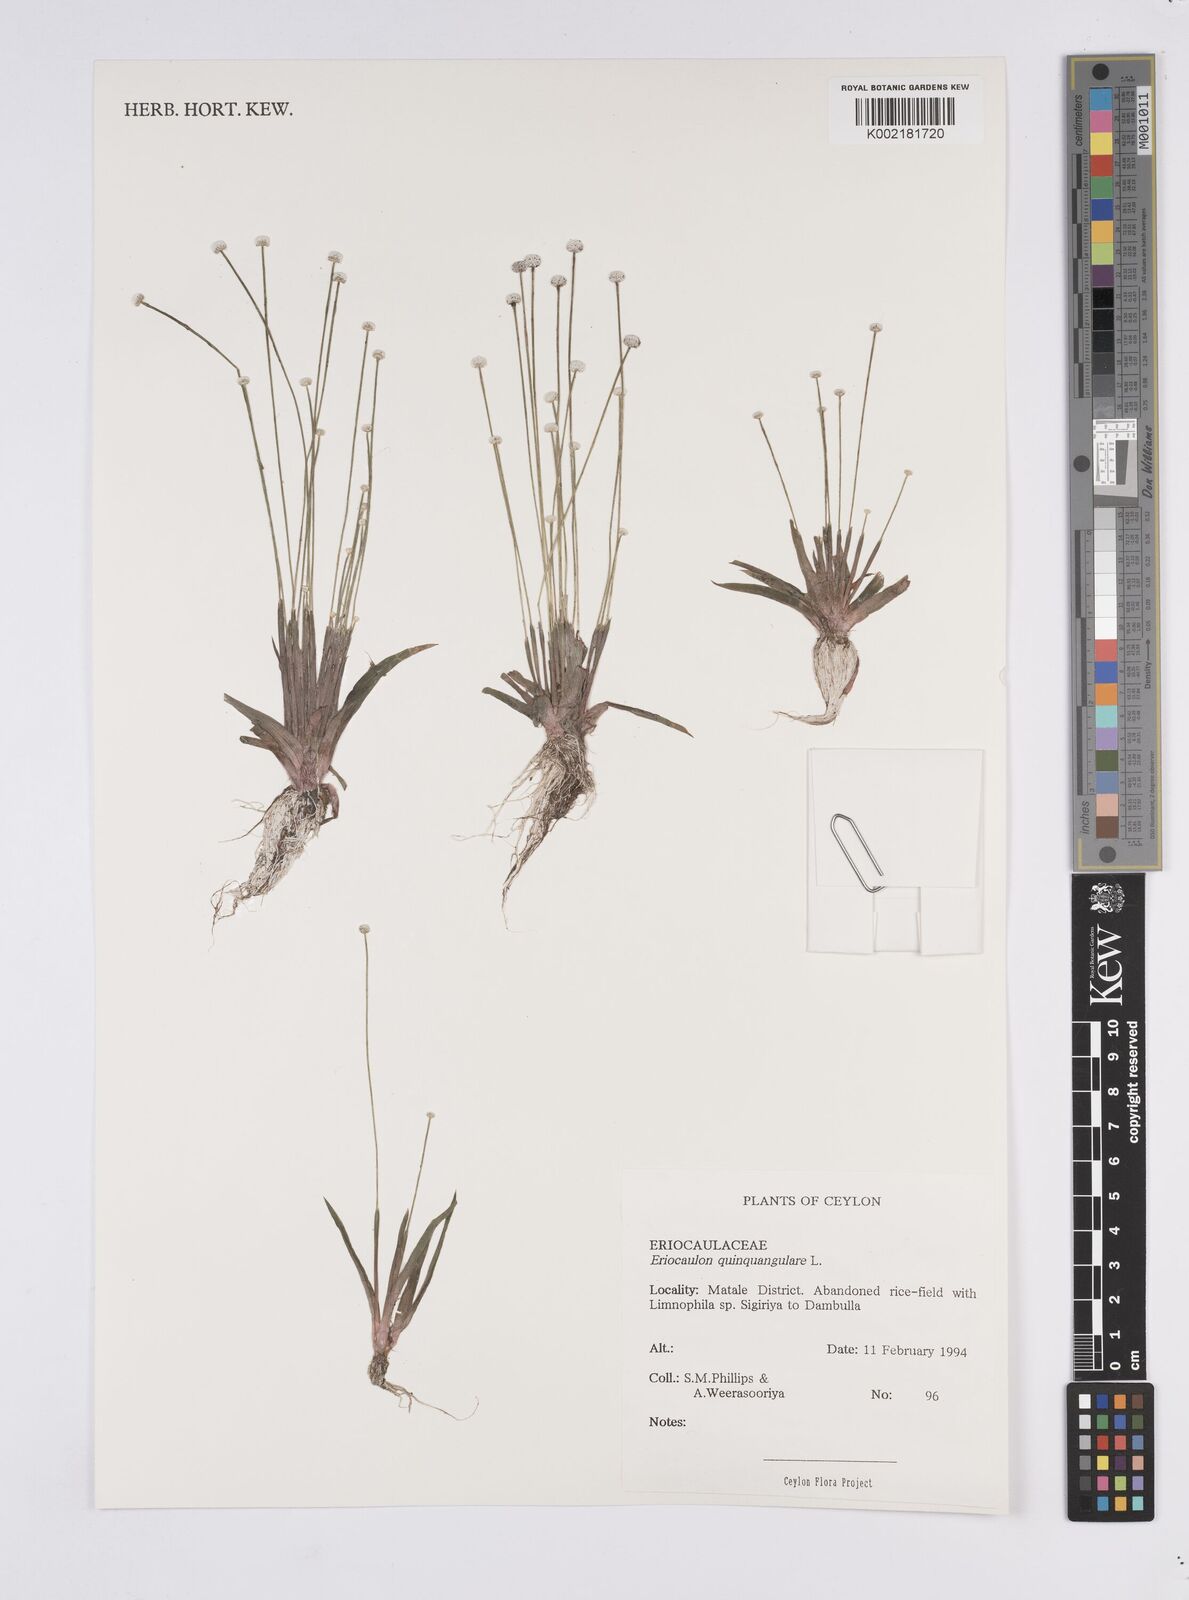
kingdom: Plantae
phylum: Tracheophyta
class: Liliopsida
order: Poales
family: Eriocaulaceae
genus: Eriocaulon
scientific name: Eriocaulon quinquangulare
